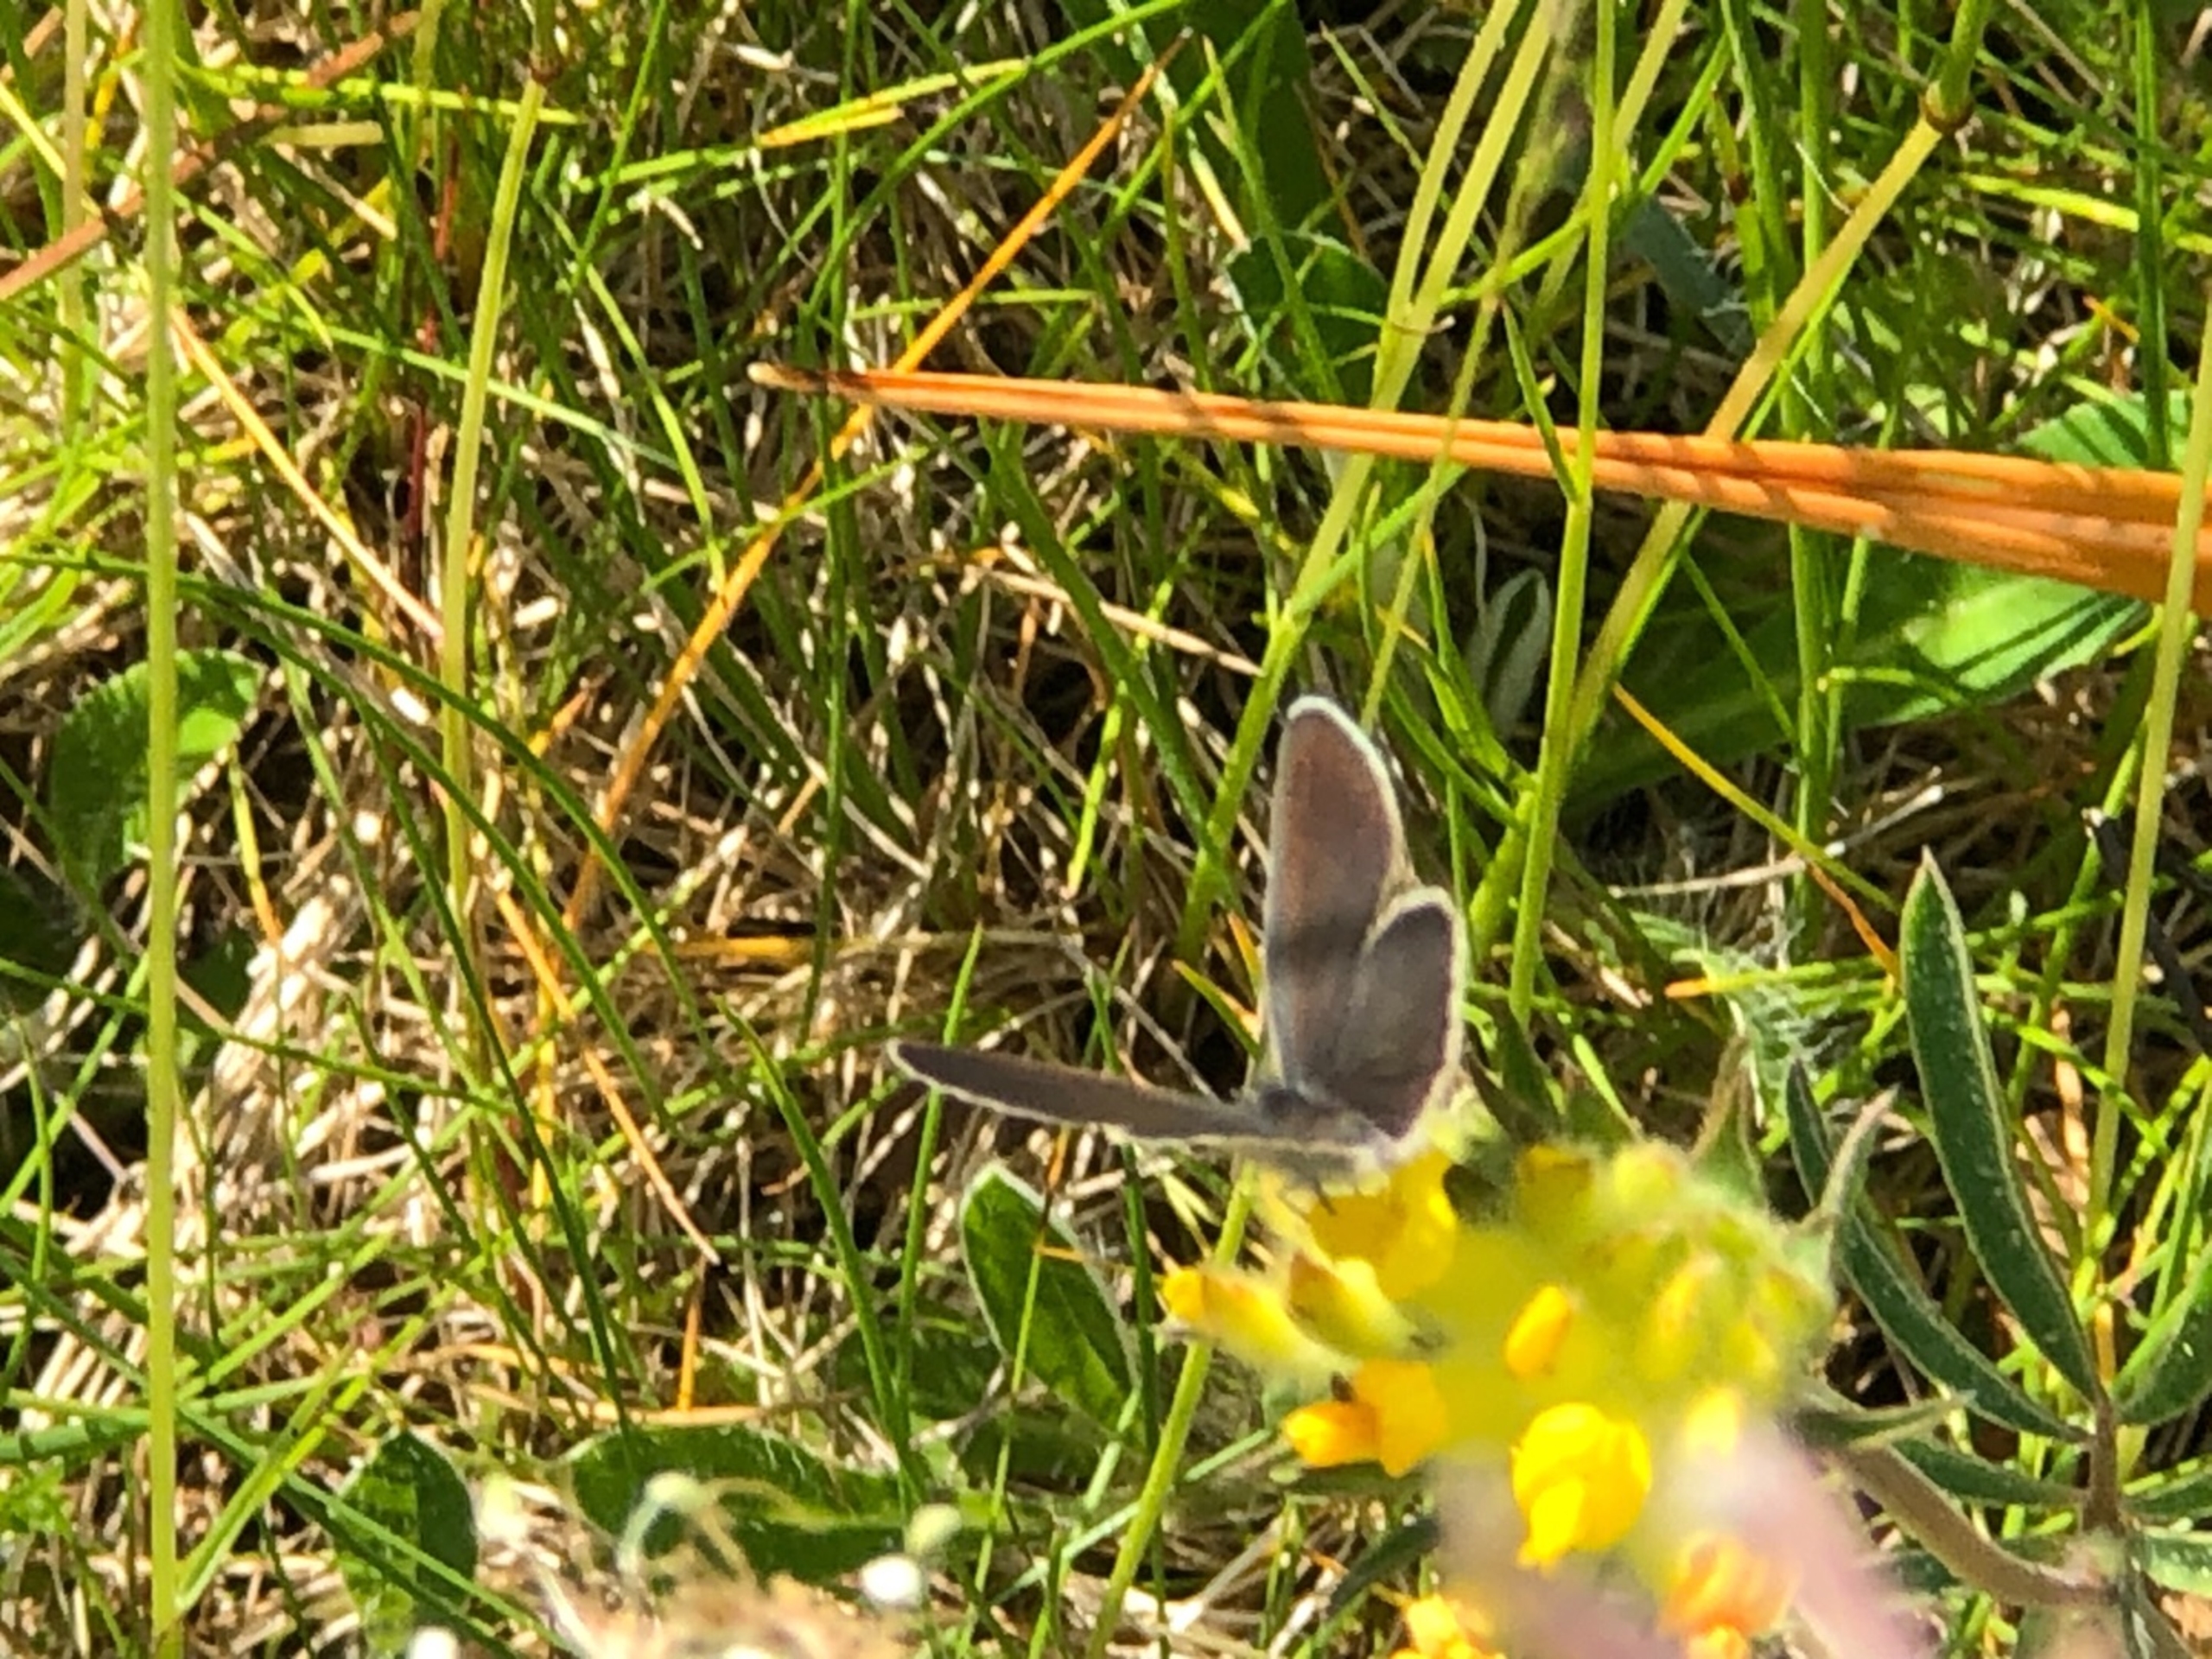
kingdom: Animalia
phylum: Arthropoda
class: Insecta
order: Lepidoptera
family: Lycaenidae
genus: Cupido
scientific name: Cupido minimus
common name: Dværgblåfugl
